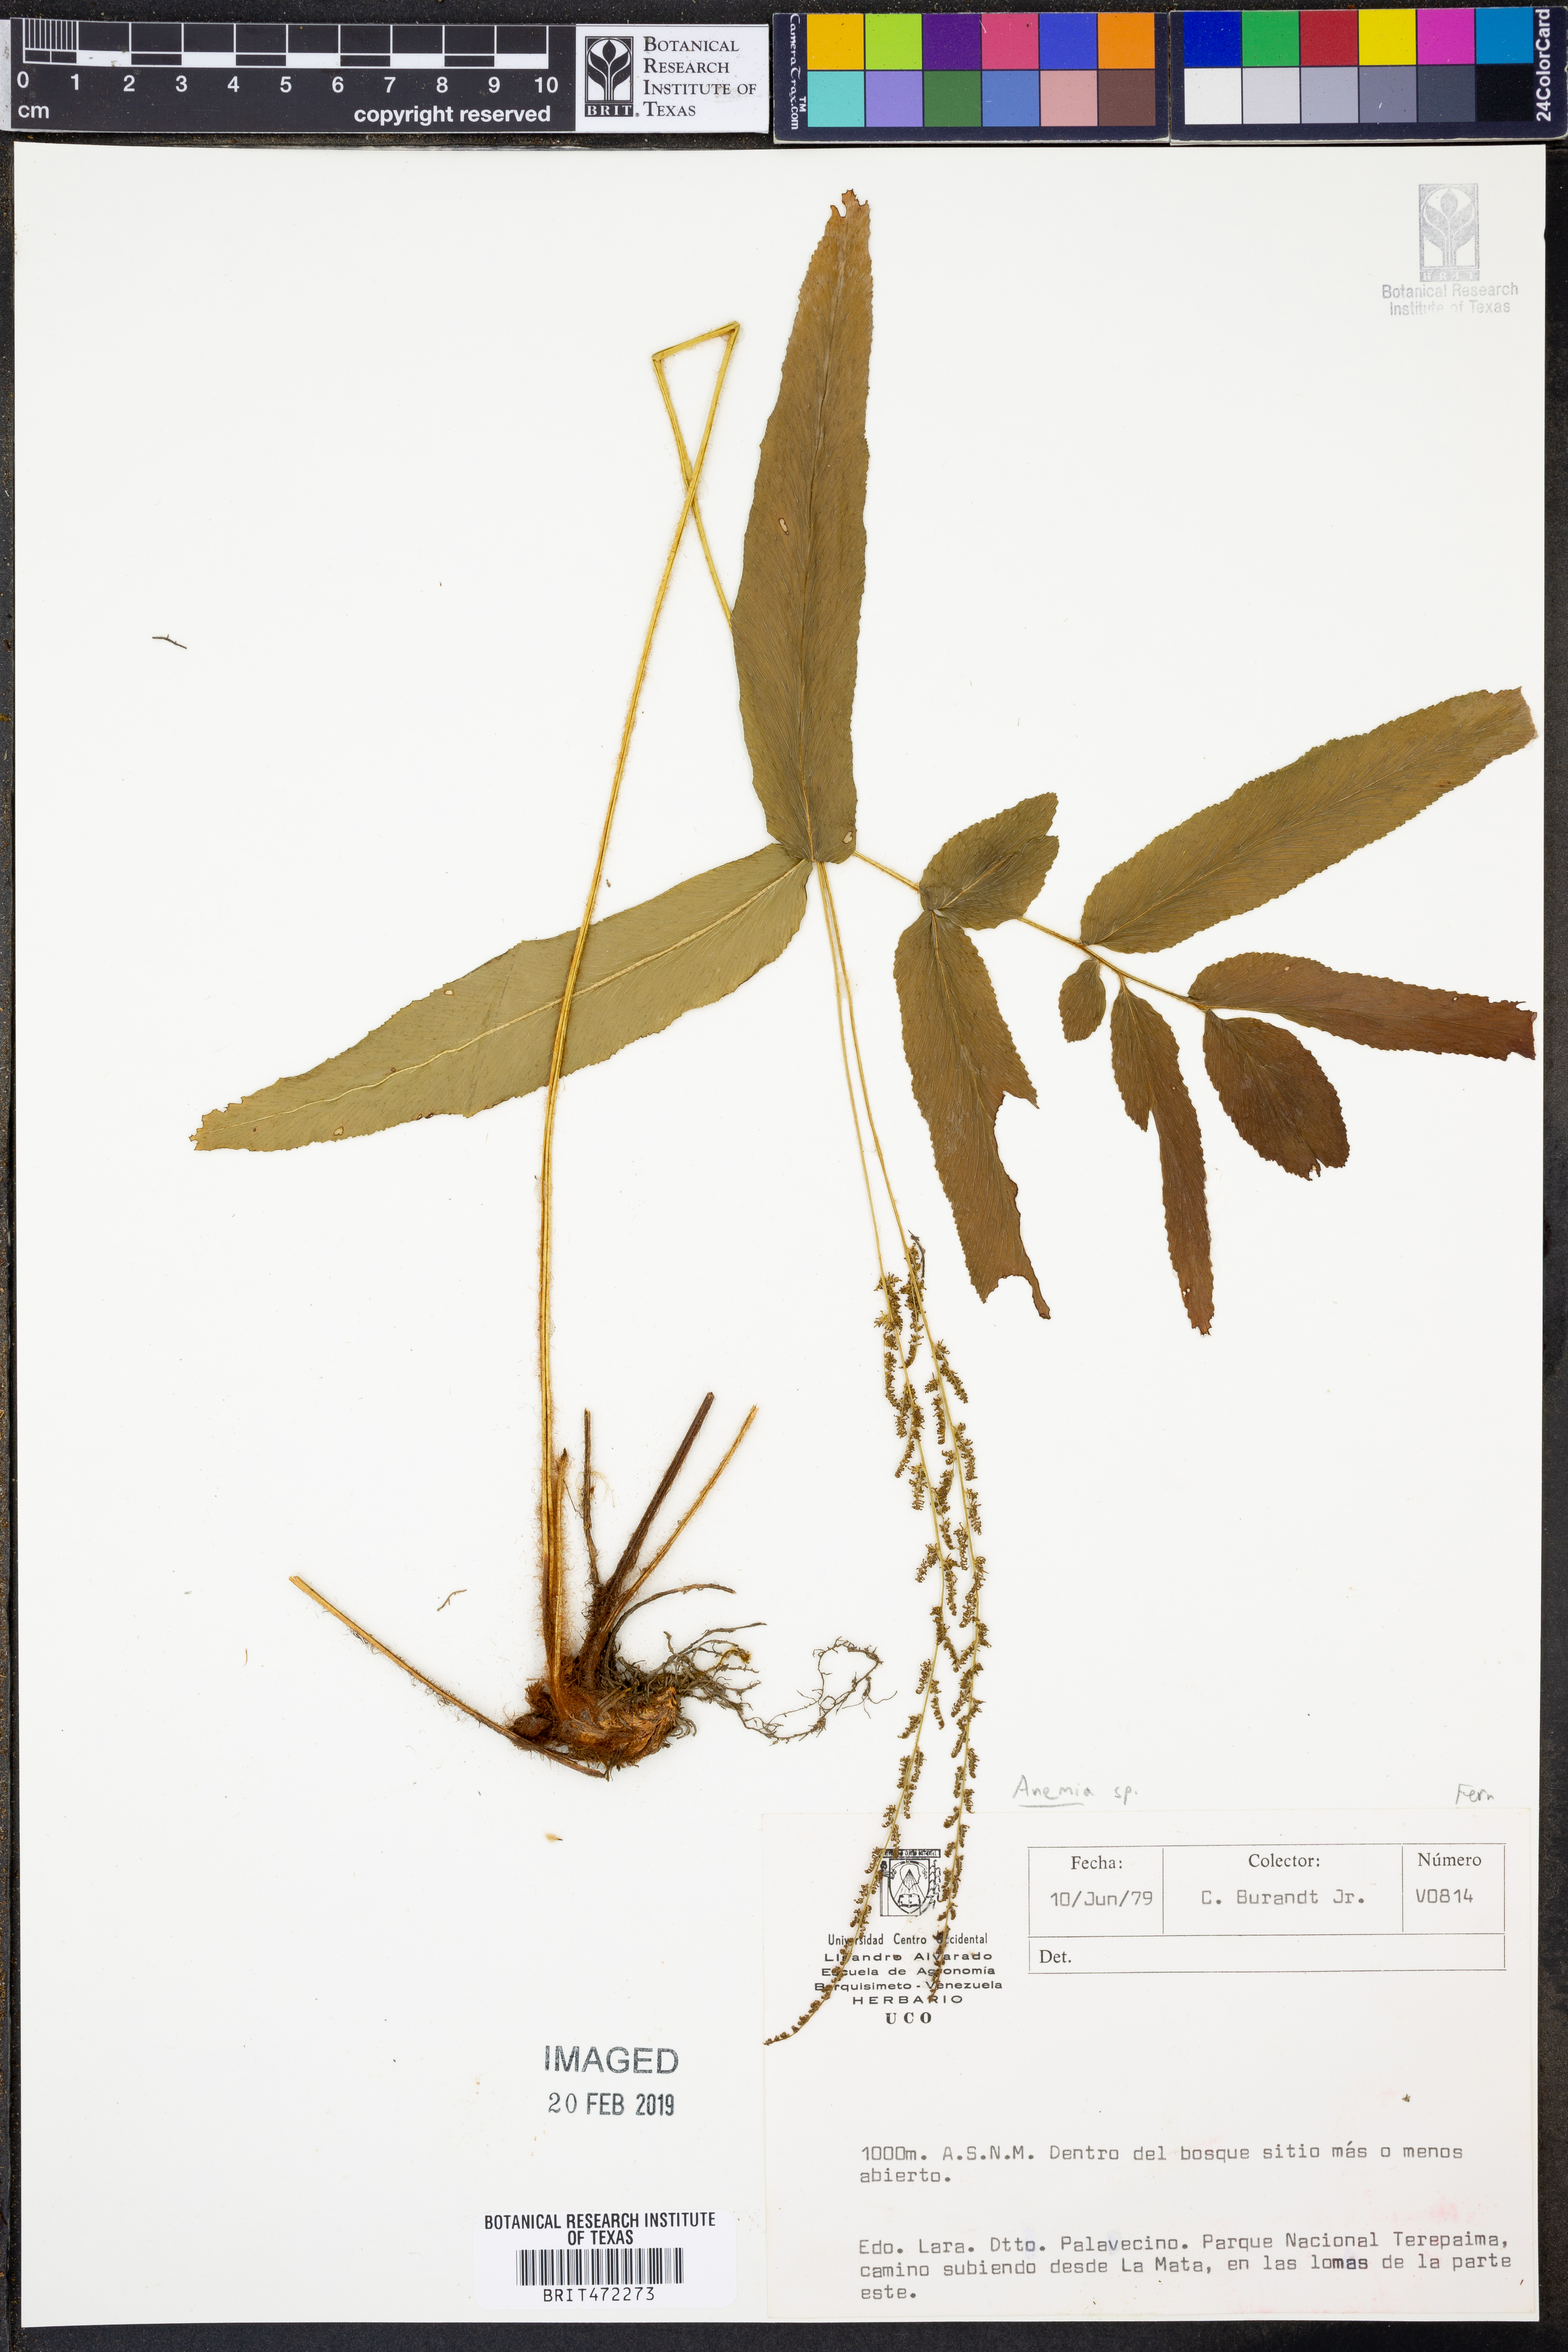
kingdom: Plantae
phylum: Tracheophyta
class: Polypodiopsida
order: Schizaeales
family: Anemiaceae
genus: Anemia
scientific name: Anemia
